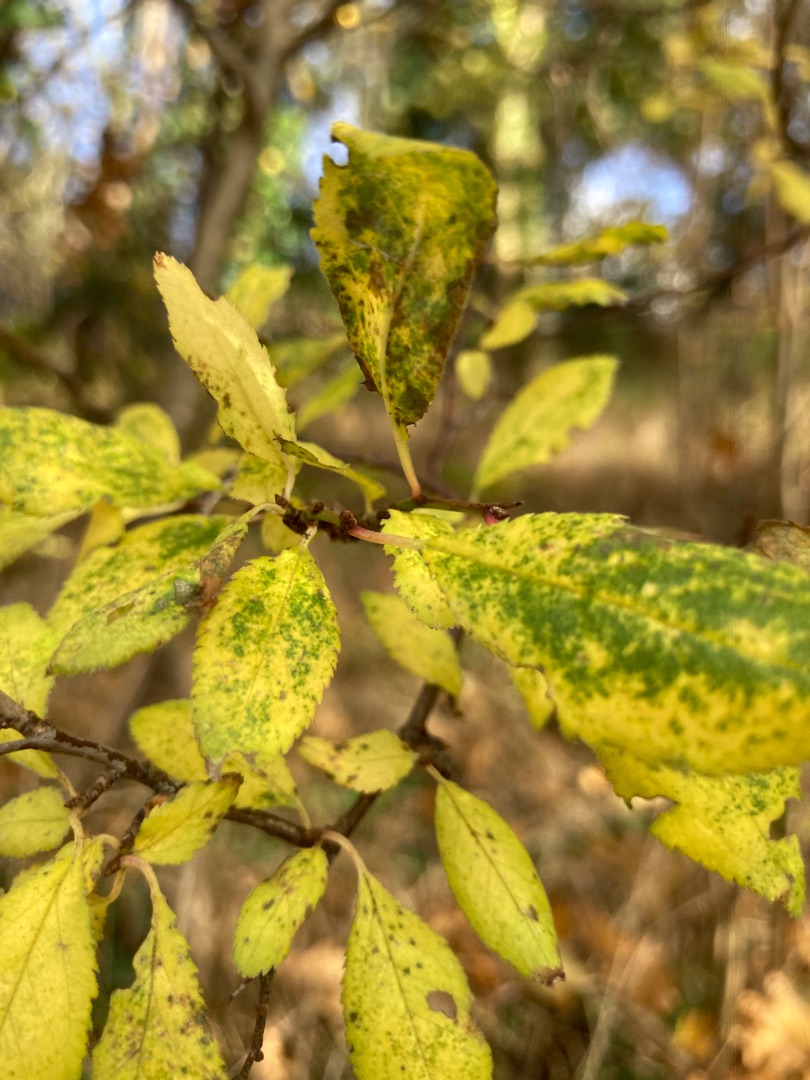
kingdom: Plantae
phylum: Tracheophyta
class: Magnoliopsida
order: Rosales
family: Rosaceae
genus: Prunus
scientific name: Prunus
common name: Blommeslægten
